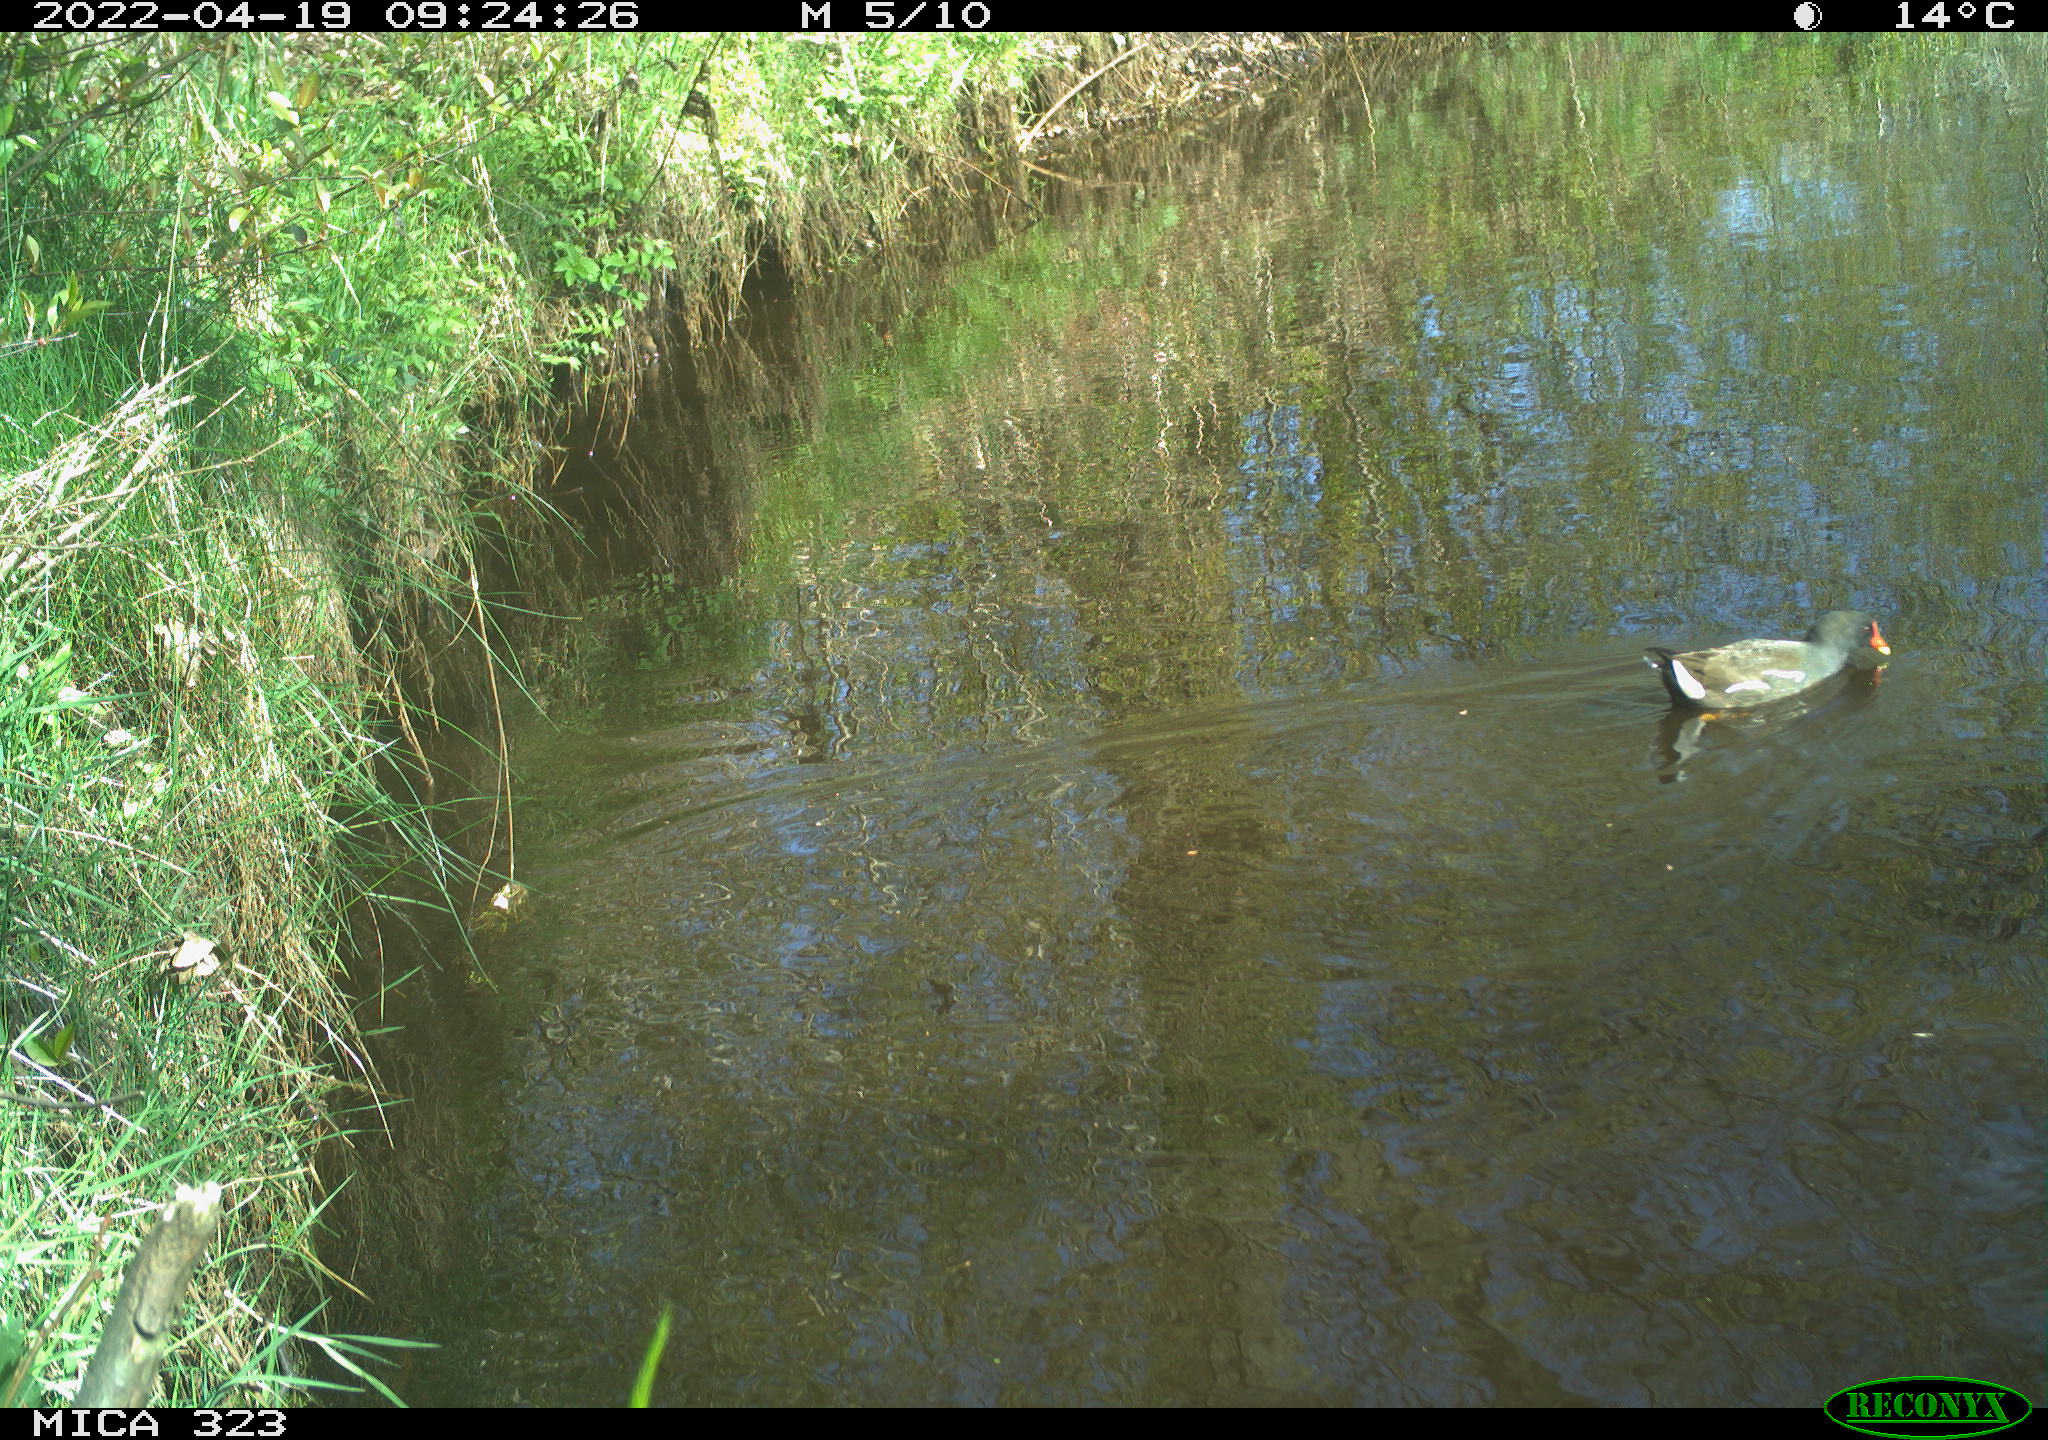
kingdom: Animalia
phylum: Chordata
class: Aves
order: Gruiformes
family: Rallidae
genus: Gallinula
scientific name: Gallinula chloropus
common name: Common moorhen
